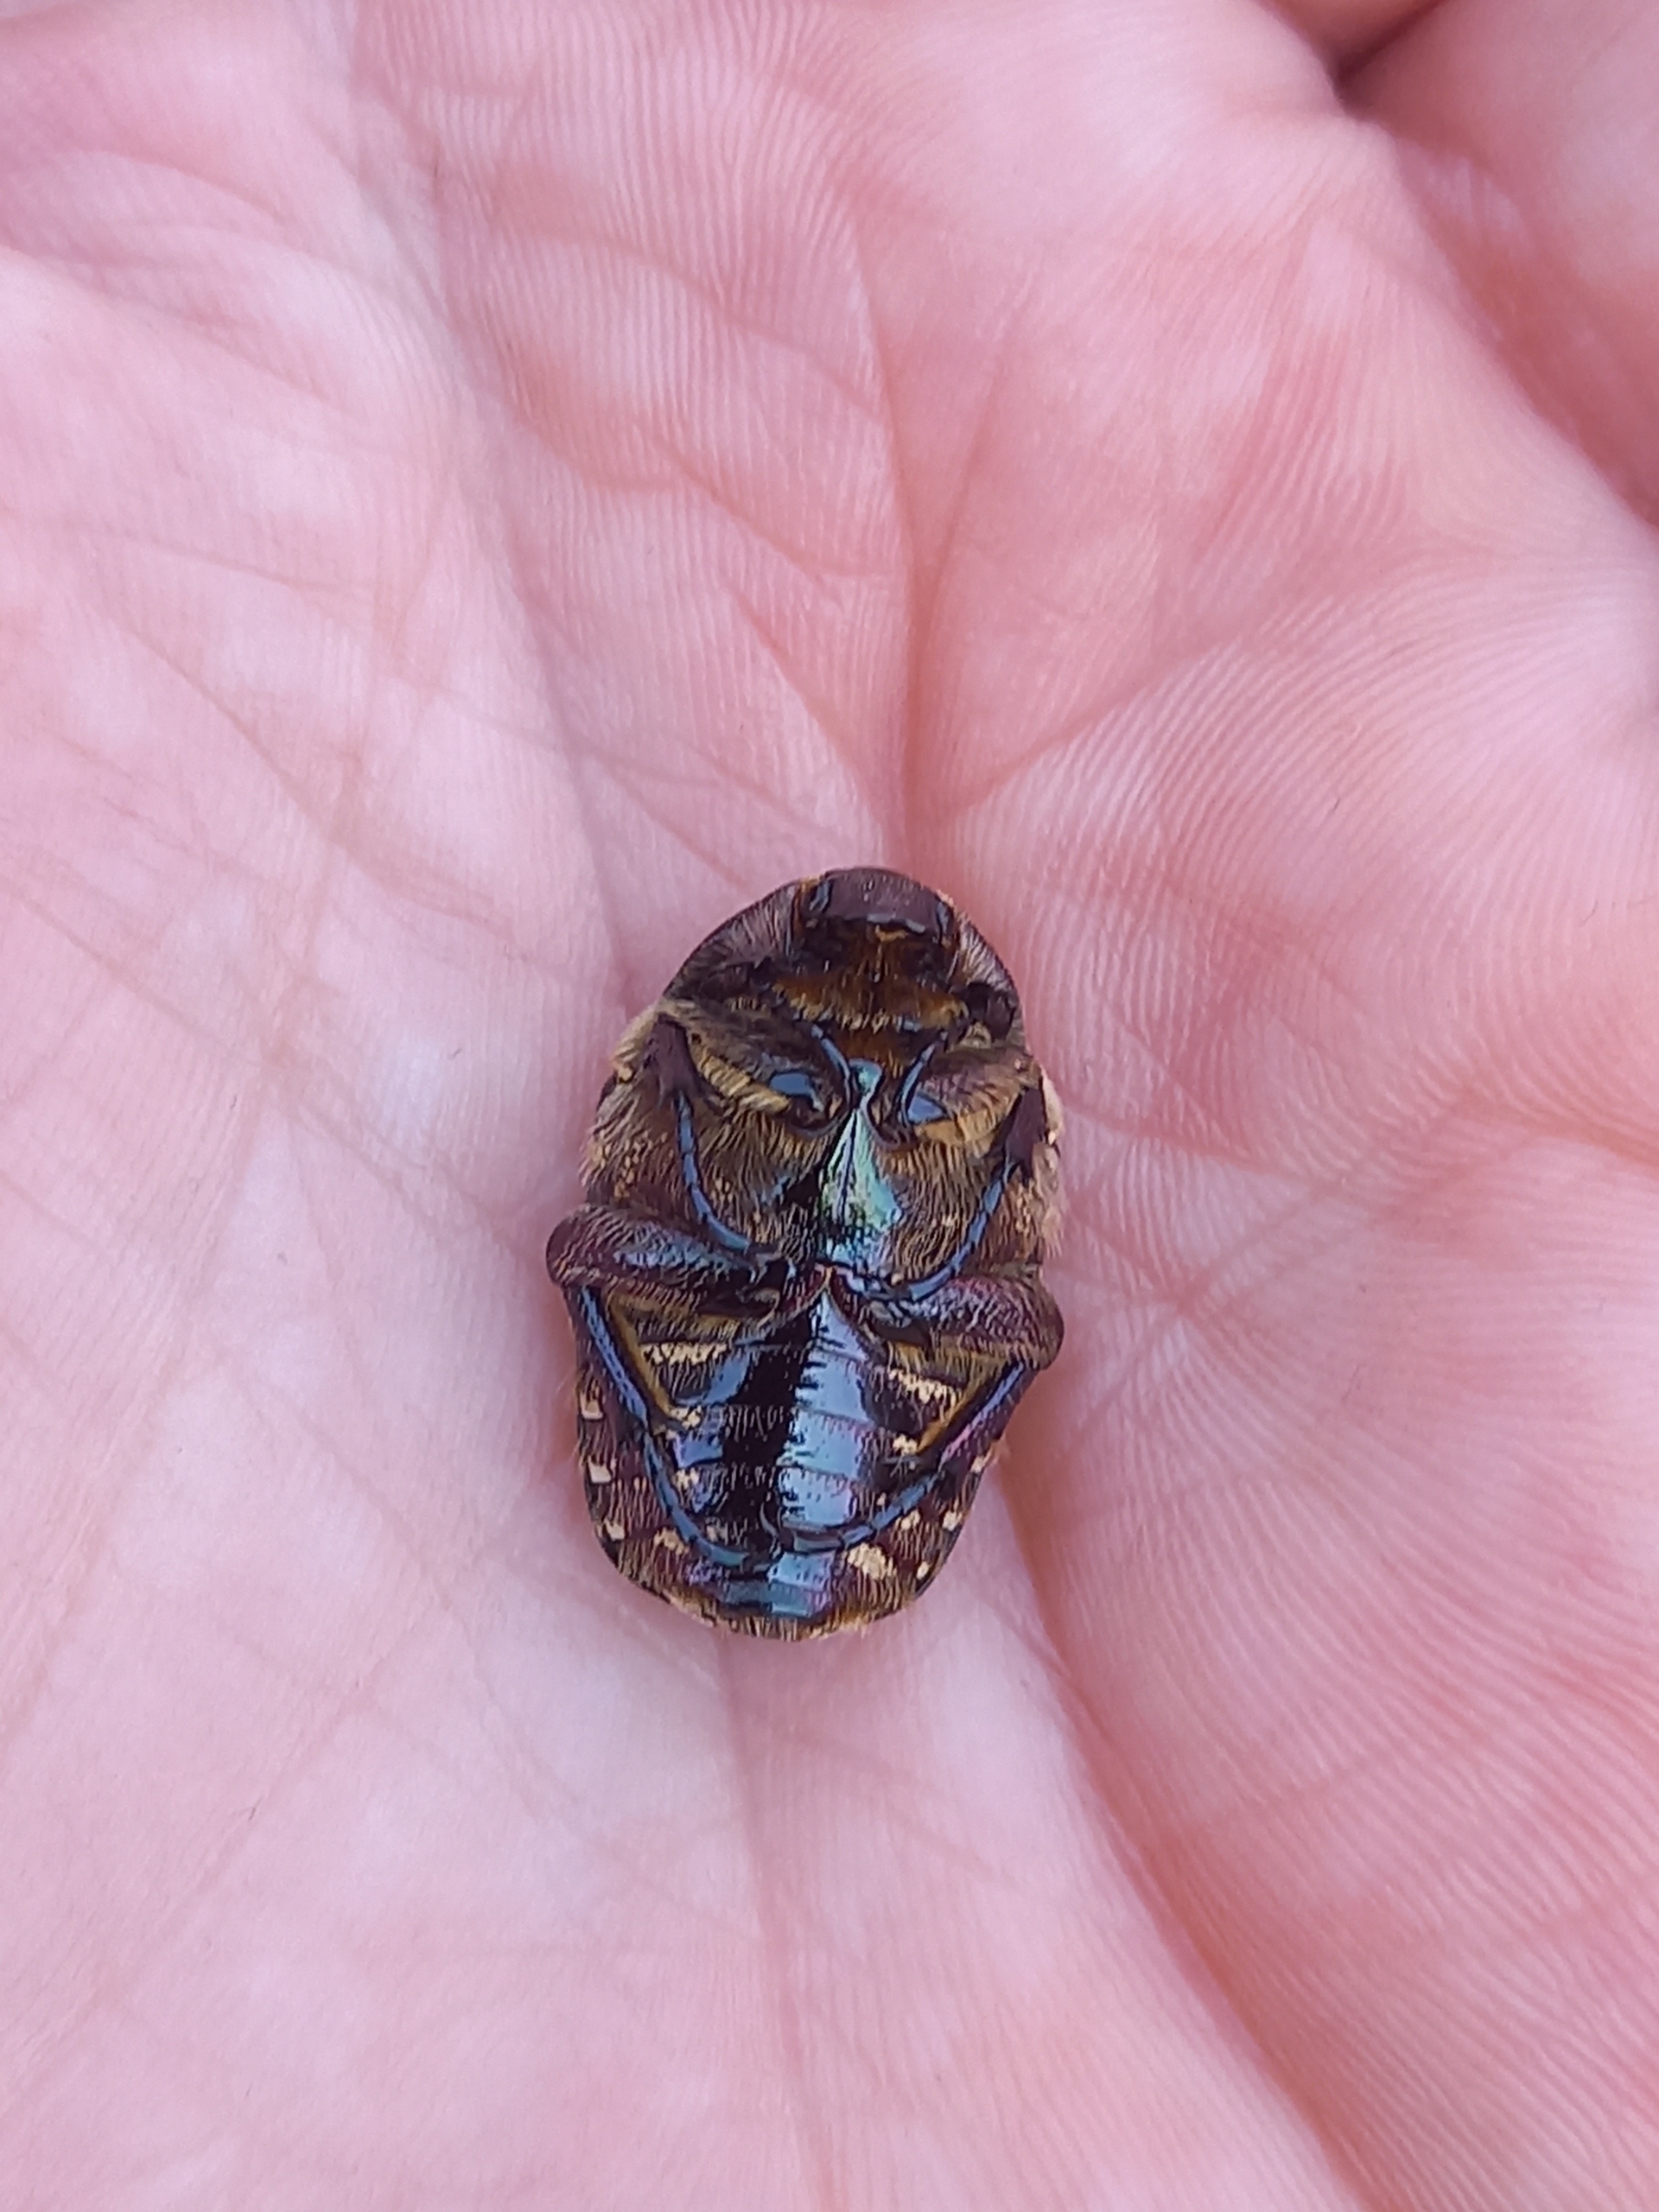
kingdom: Animalia
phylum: Arthropoda
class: Insecta
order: Coleoptera
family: Scarabaeidae
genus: Protaetia
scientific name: Protaetia cuprea
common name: Kobberguldbasse
